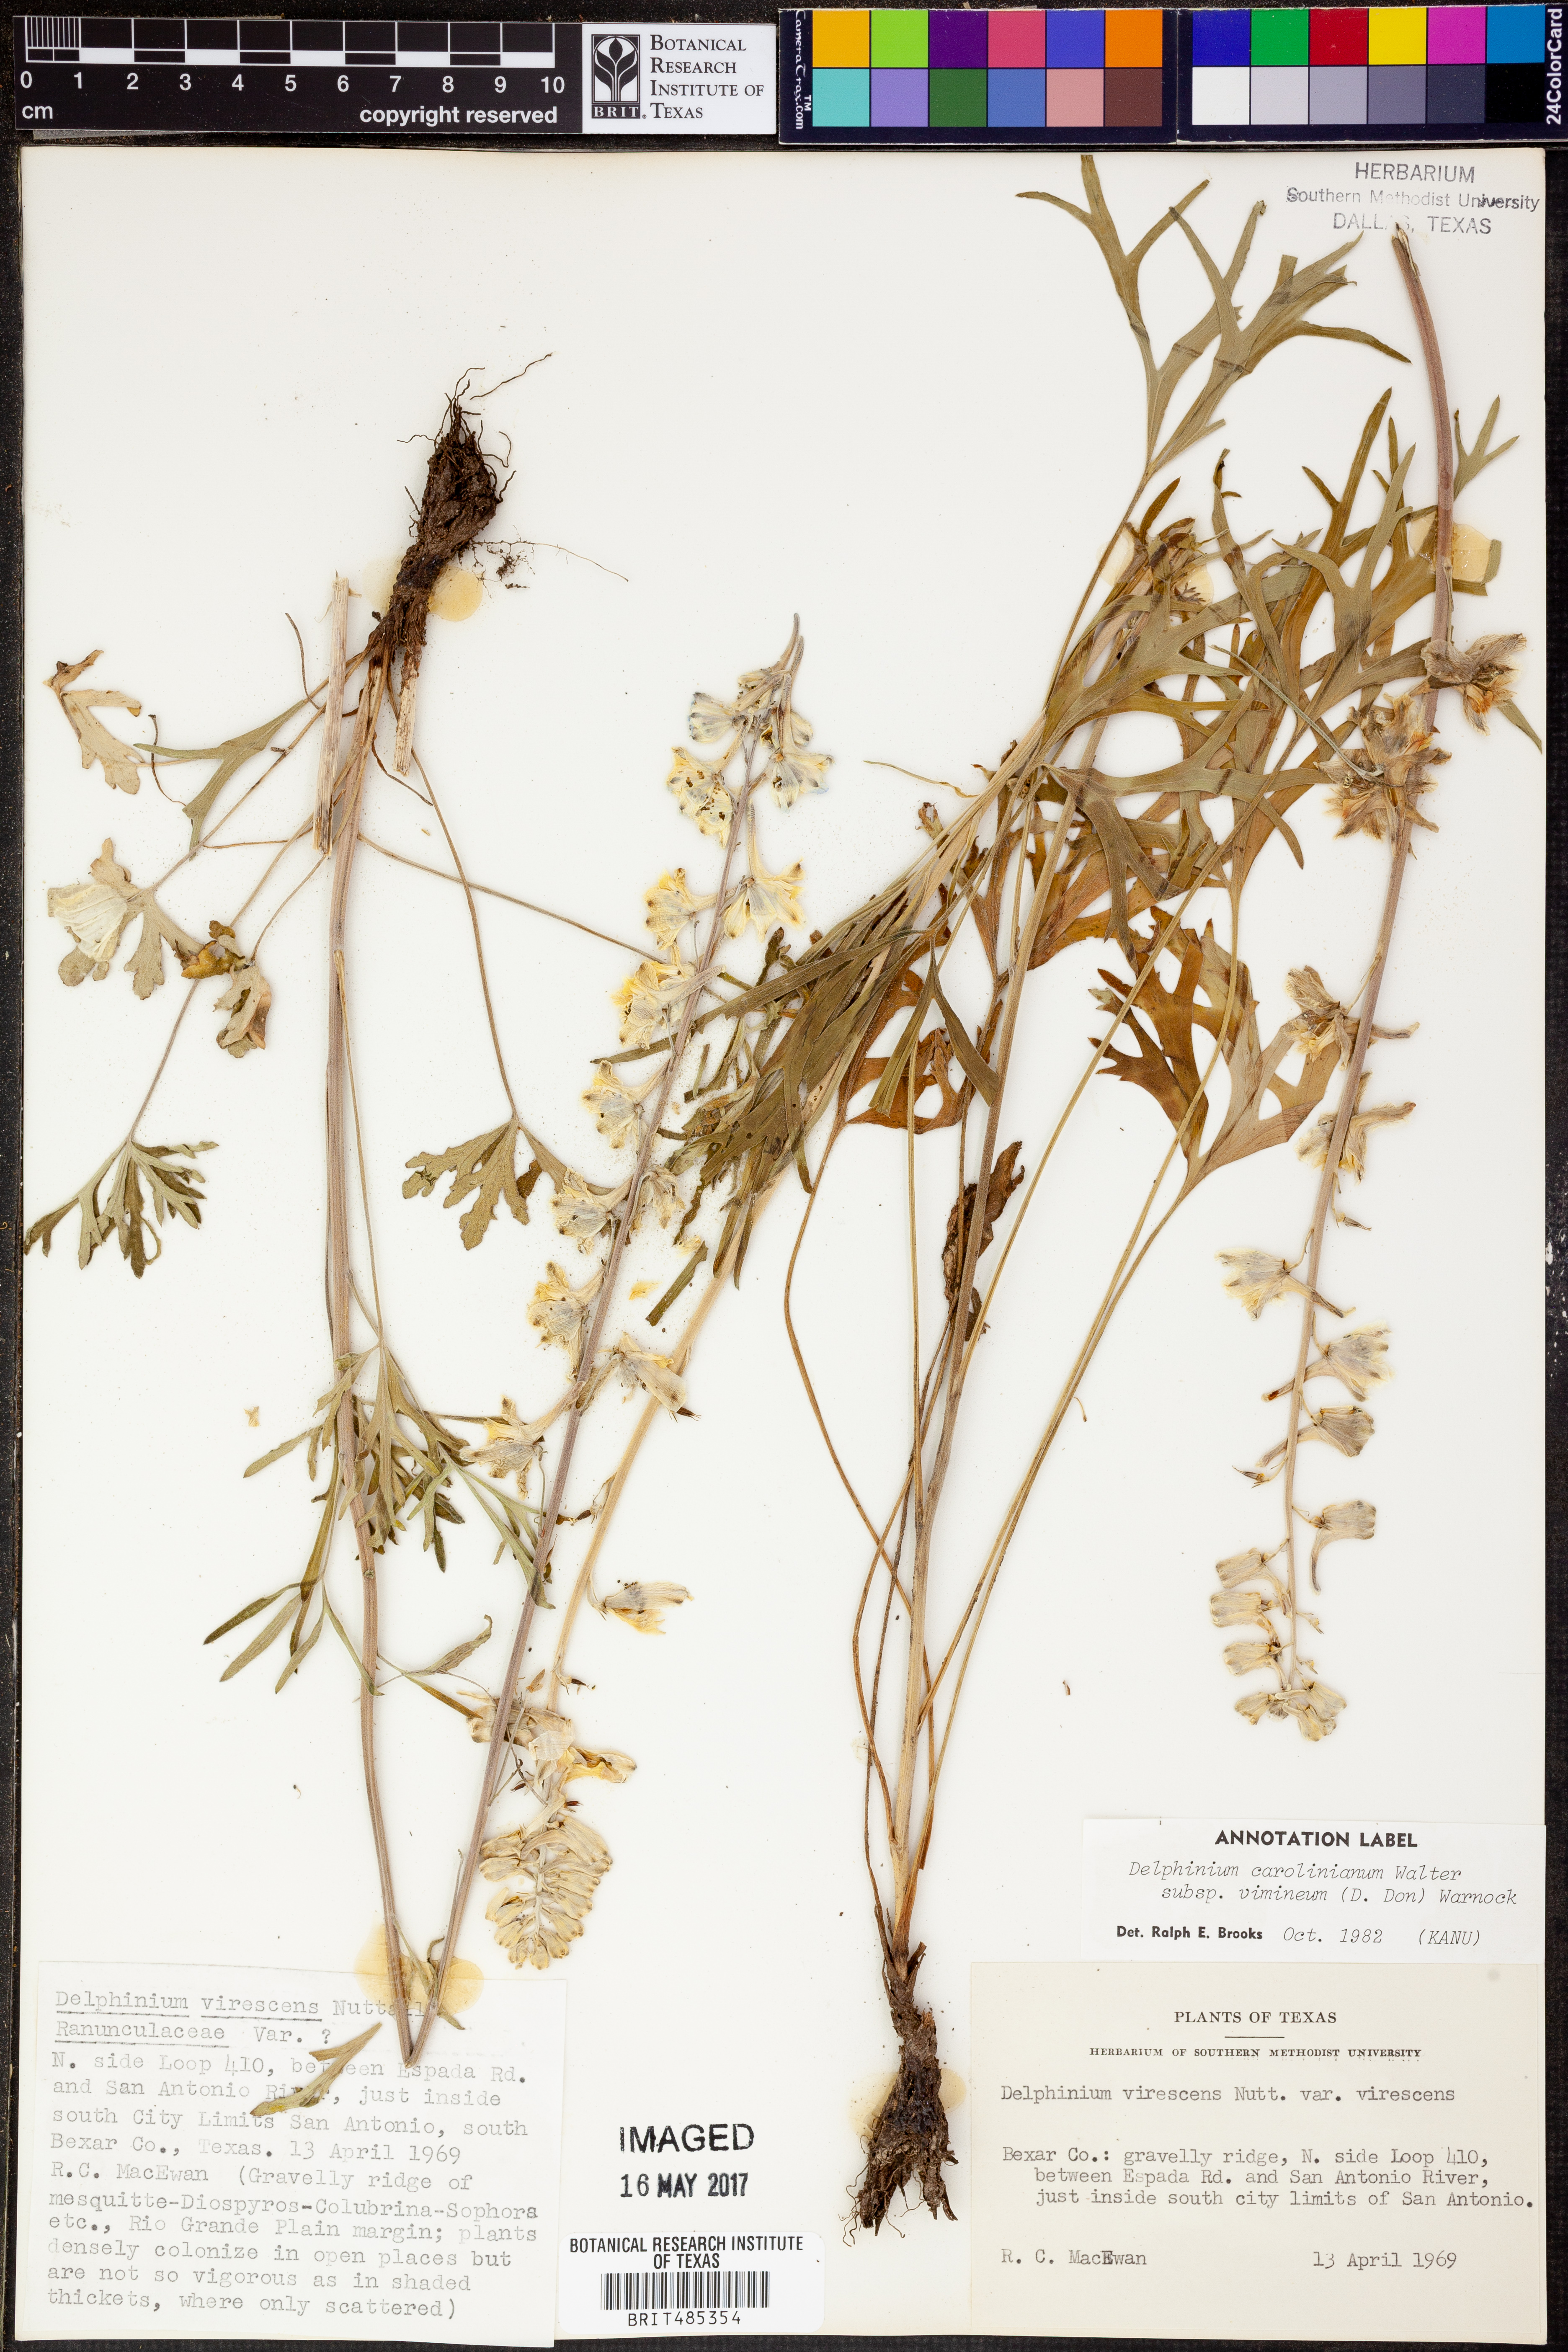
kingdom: Plantae
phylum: Tracheophyta
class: Magnoliopsida
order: Ranunculales
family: Ranunculaceae
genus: Delphinium
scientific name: Delphinium carolinianum
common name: Carolina larkspur
